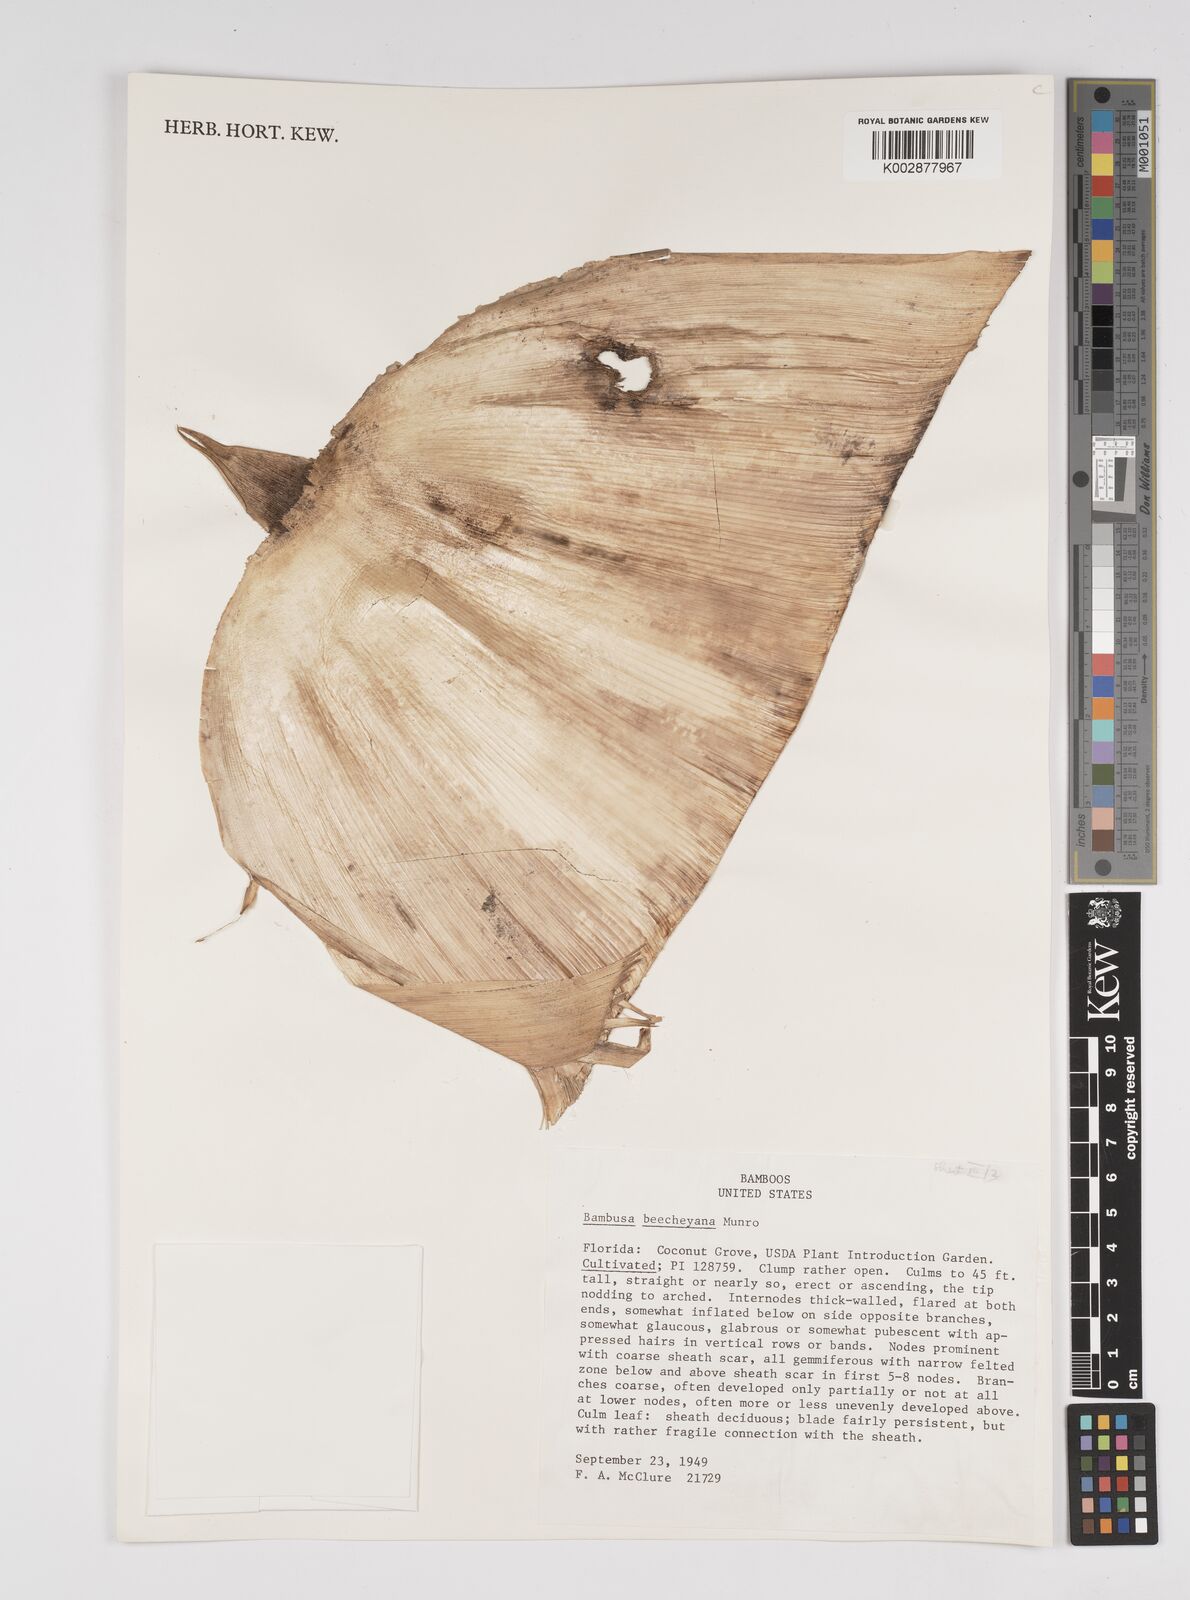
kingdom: Plantae
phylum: Tracheophyta
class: Liliopsida
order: Poales
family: Poaceae
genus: Bambusa
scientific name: Bambusa beecheyana
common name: Beechey's bamboo
